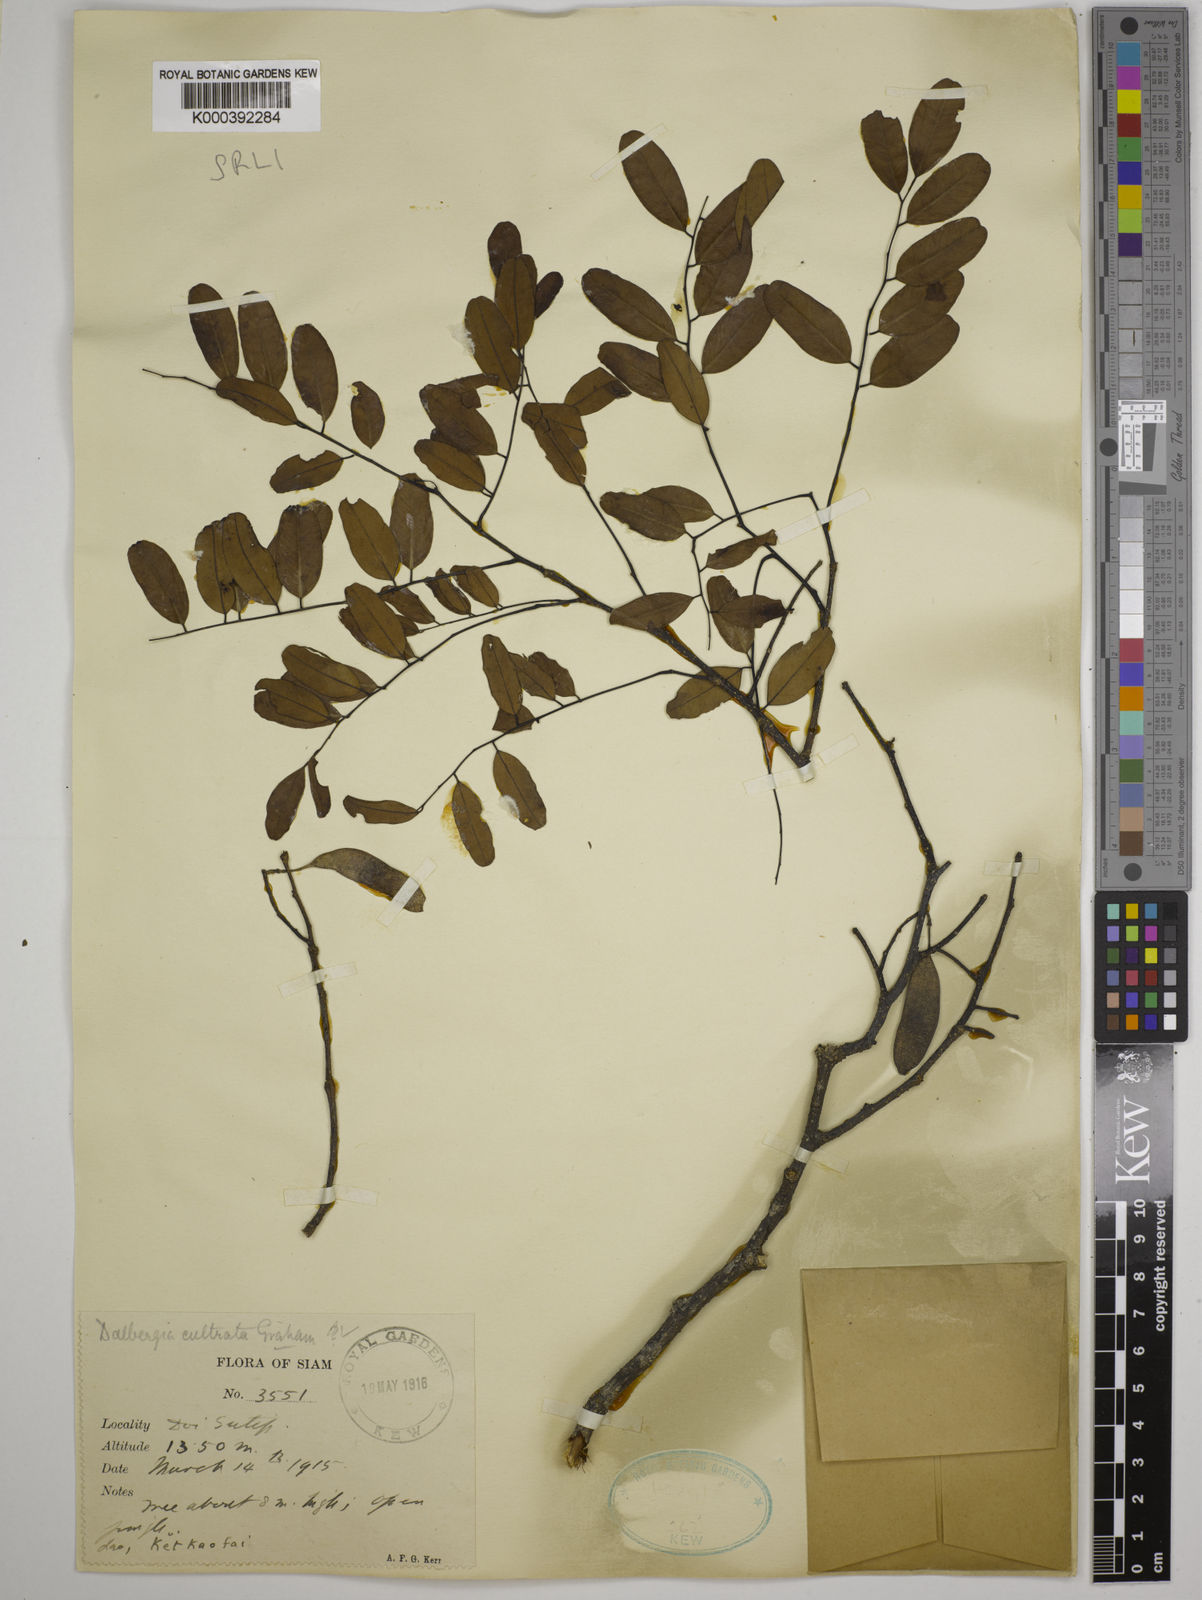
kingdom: Plantae
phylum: Tracheophyta
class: Magnoliopsida
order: Fabales
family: Fabaceae
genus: Dalbergia
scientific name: Dalbergia
